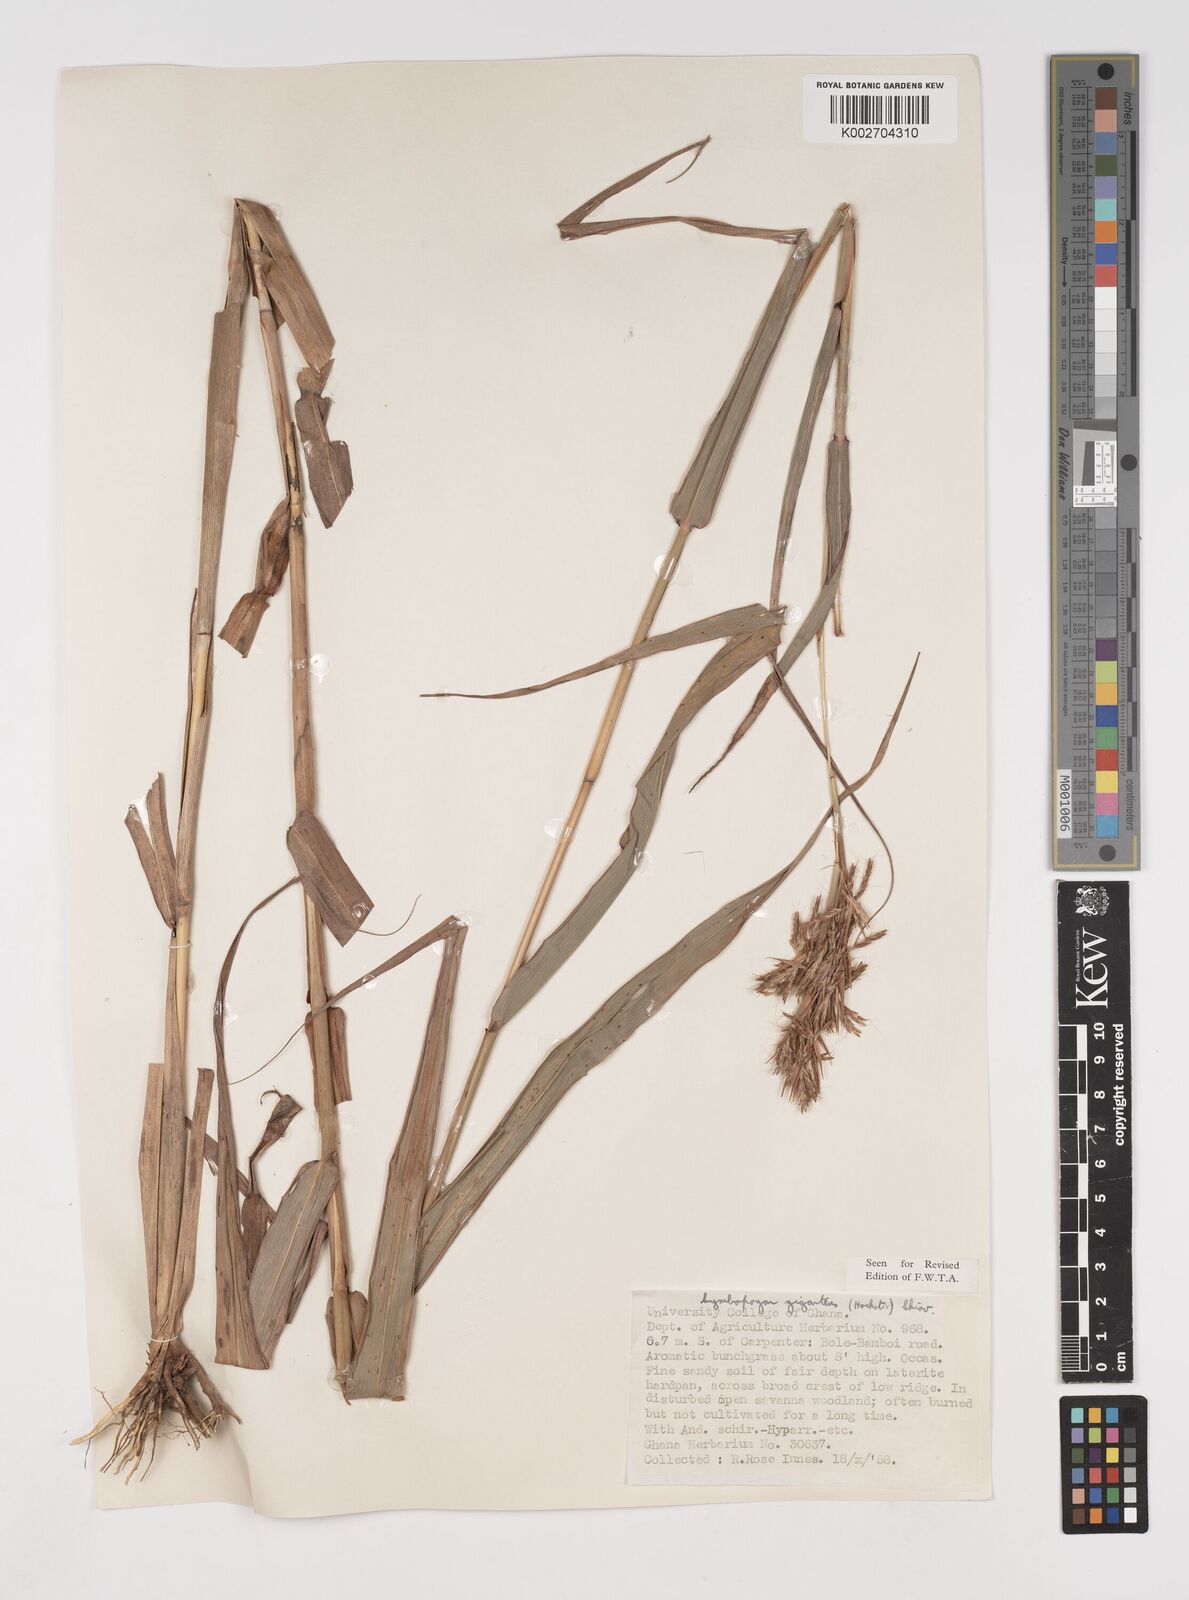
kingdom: Plantae
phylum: Tracheophyta
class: Liliopsida
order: Poales
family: Poaceae
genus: Cymbopogon
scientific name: Cymbopogon giganteus
